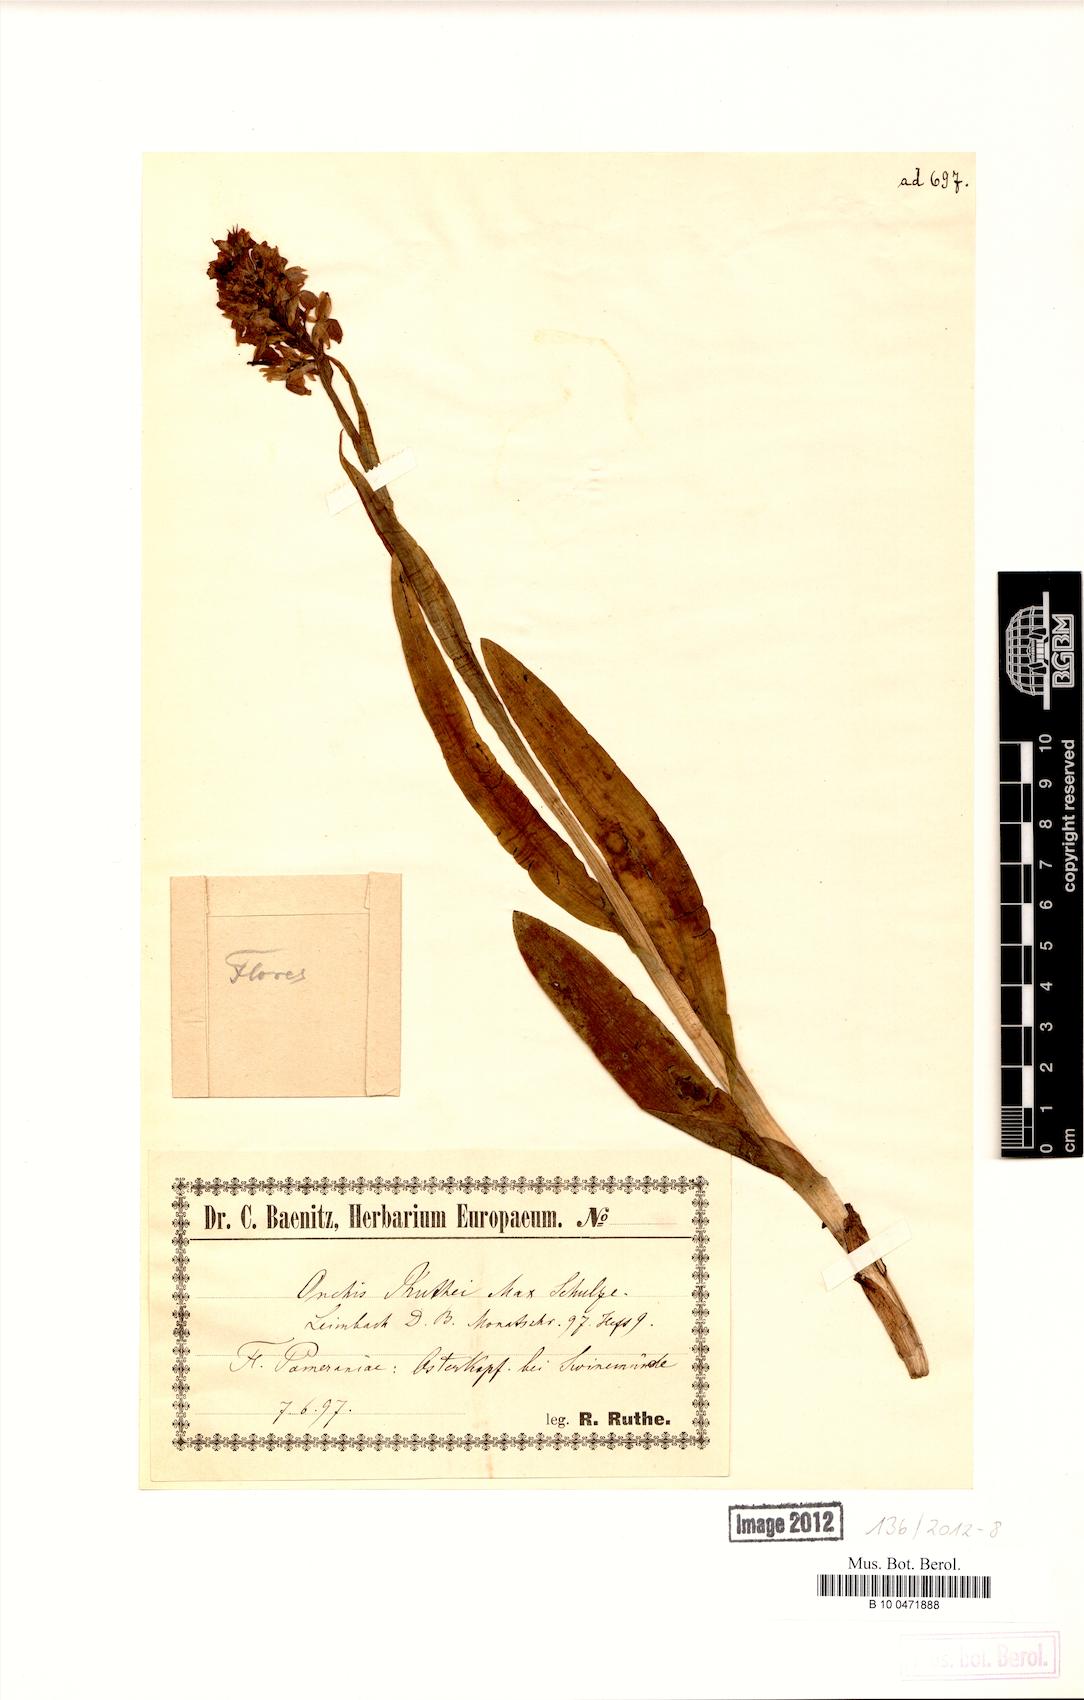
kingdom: Plantae
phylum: Tracheophyta
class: Liliopsida
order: Asparagales
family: Orchidaceae
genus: Dactylorhiza
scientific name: Dactylorhiza kerneriorum
